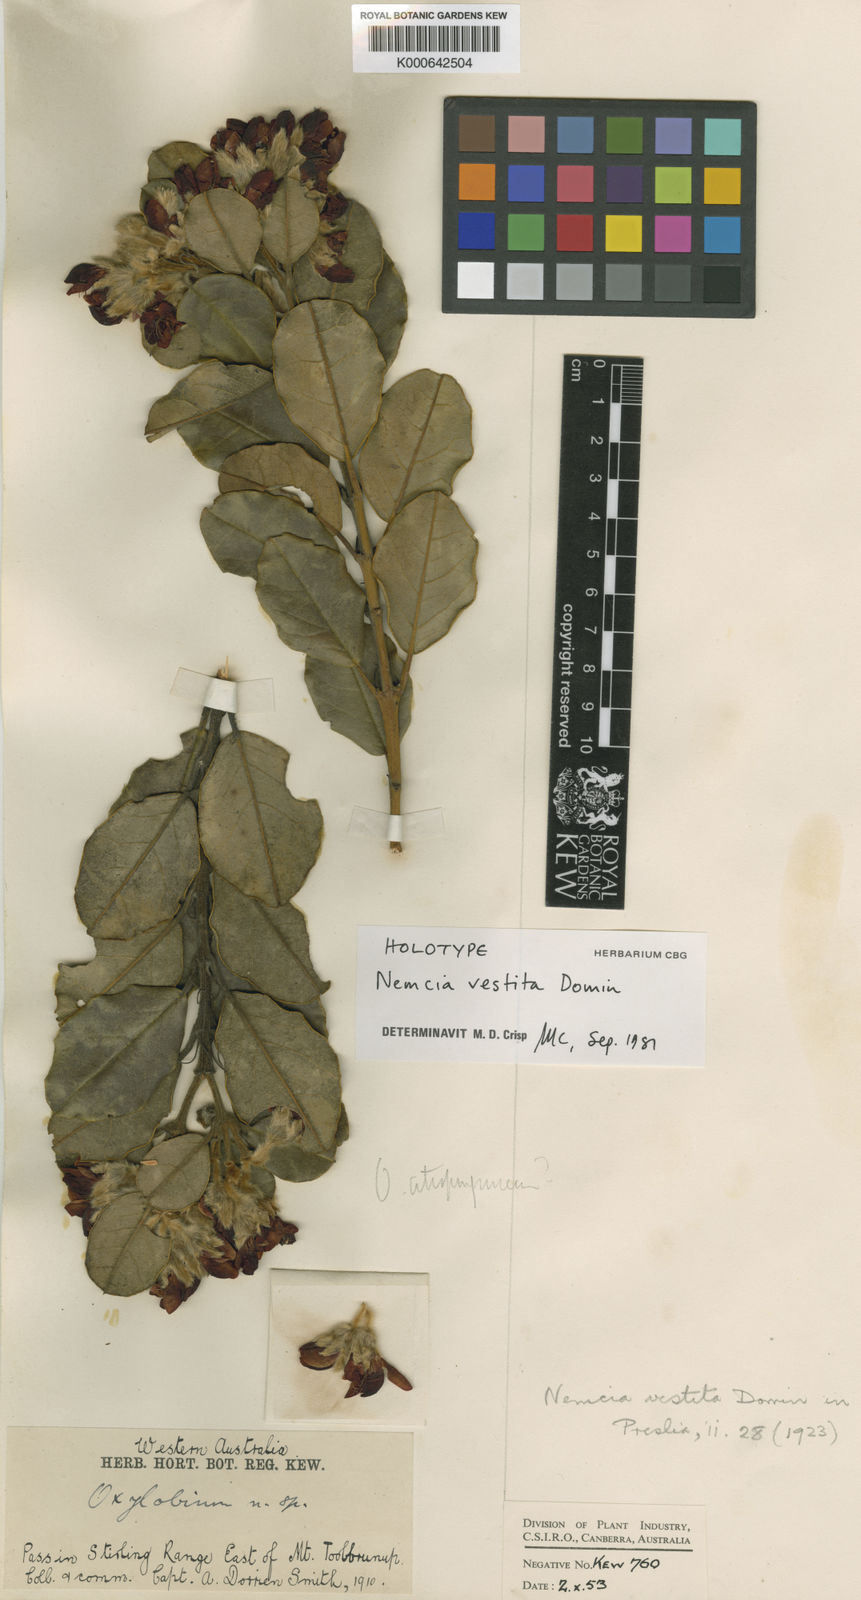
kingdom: Plantae
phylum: Tracheophyta
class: Magnoliopsida
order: Fabales
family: Fabaceae
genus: Gastrolobium
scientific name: Gastrolobium vestitum
